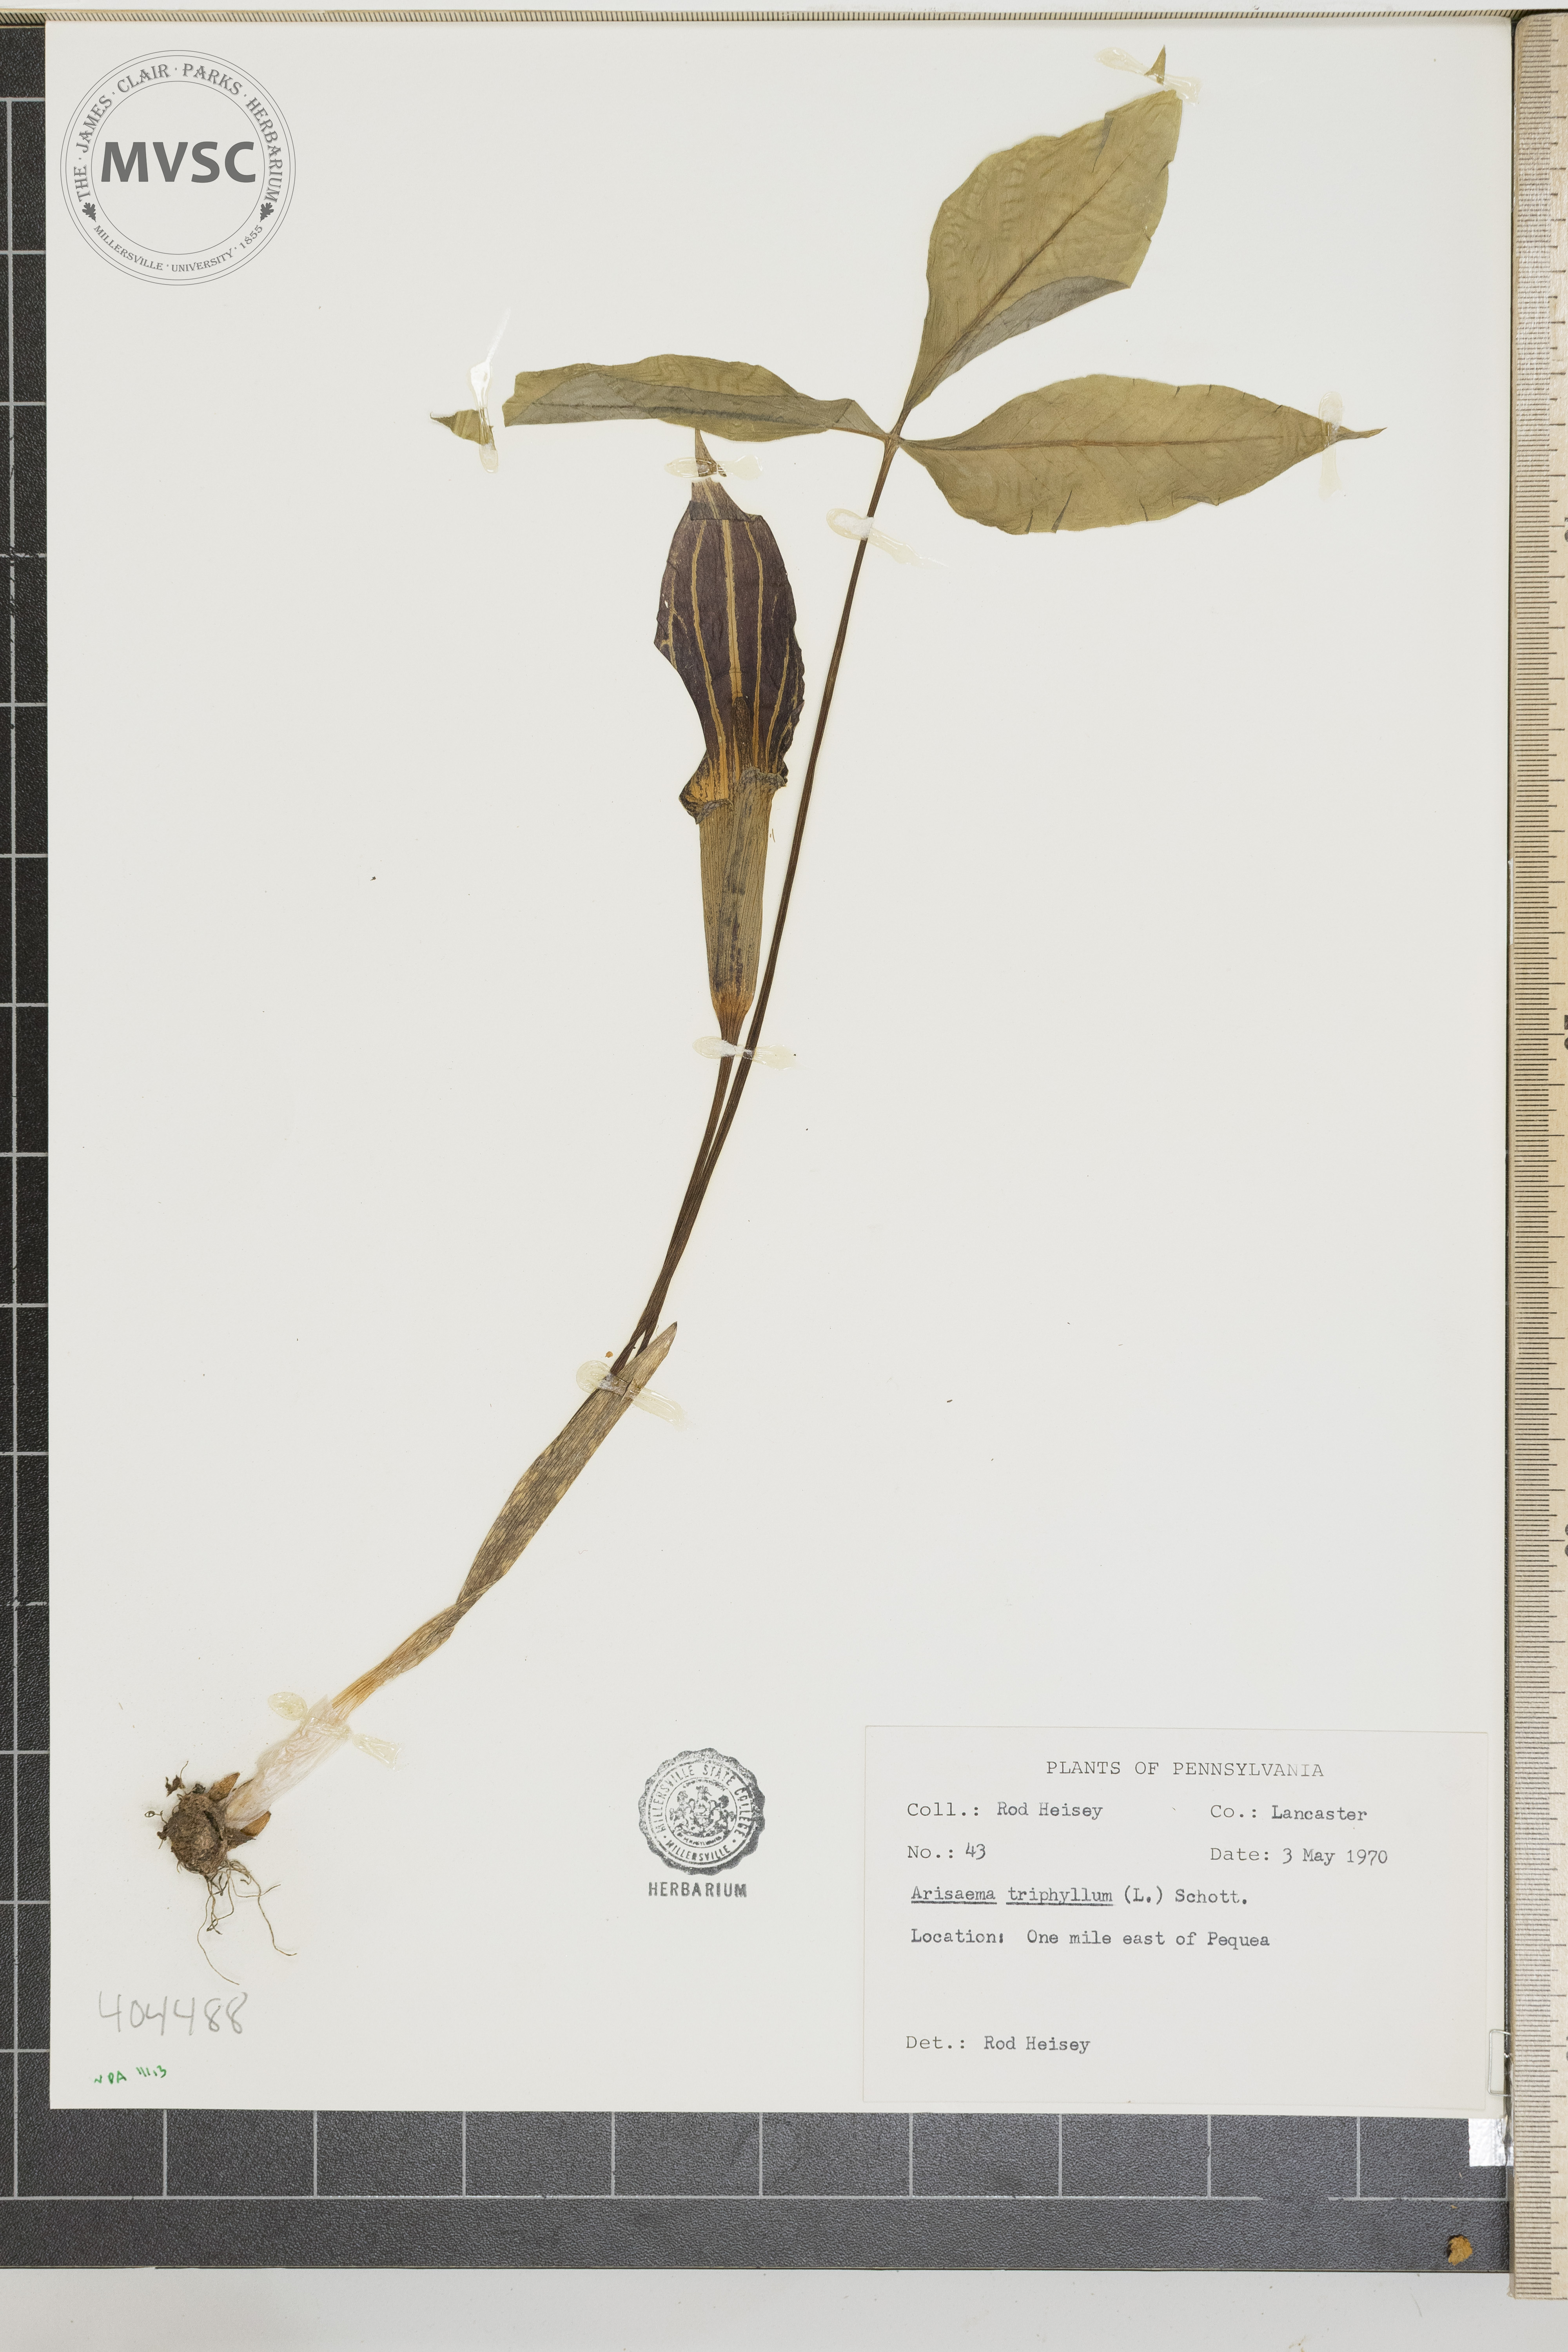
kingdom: Plantae
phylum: Tracheophyta
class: Liliopsida
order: Alismatales
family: Araceae
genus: Arisaema
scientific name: Arisaema triphyllum
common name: Jack-in-the-pulpit
